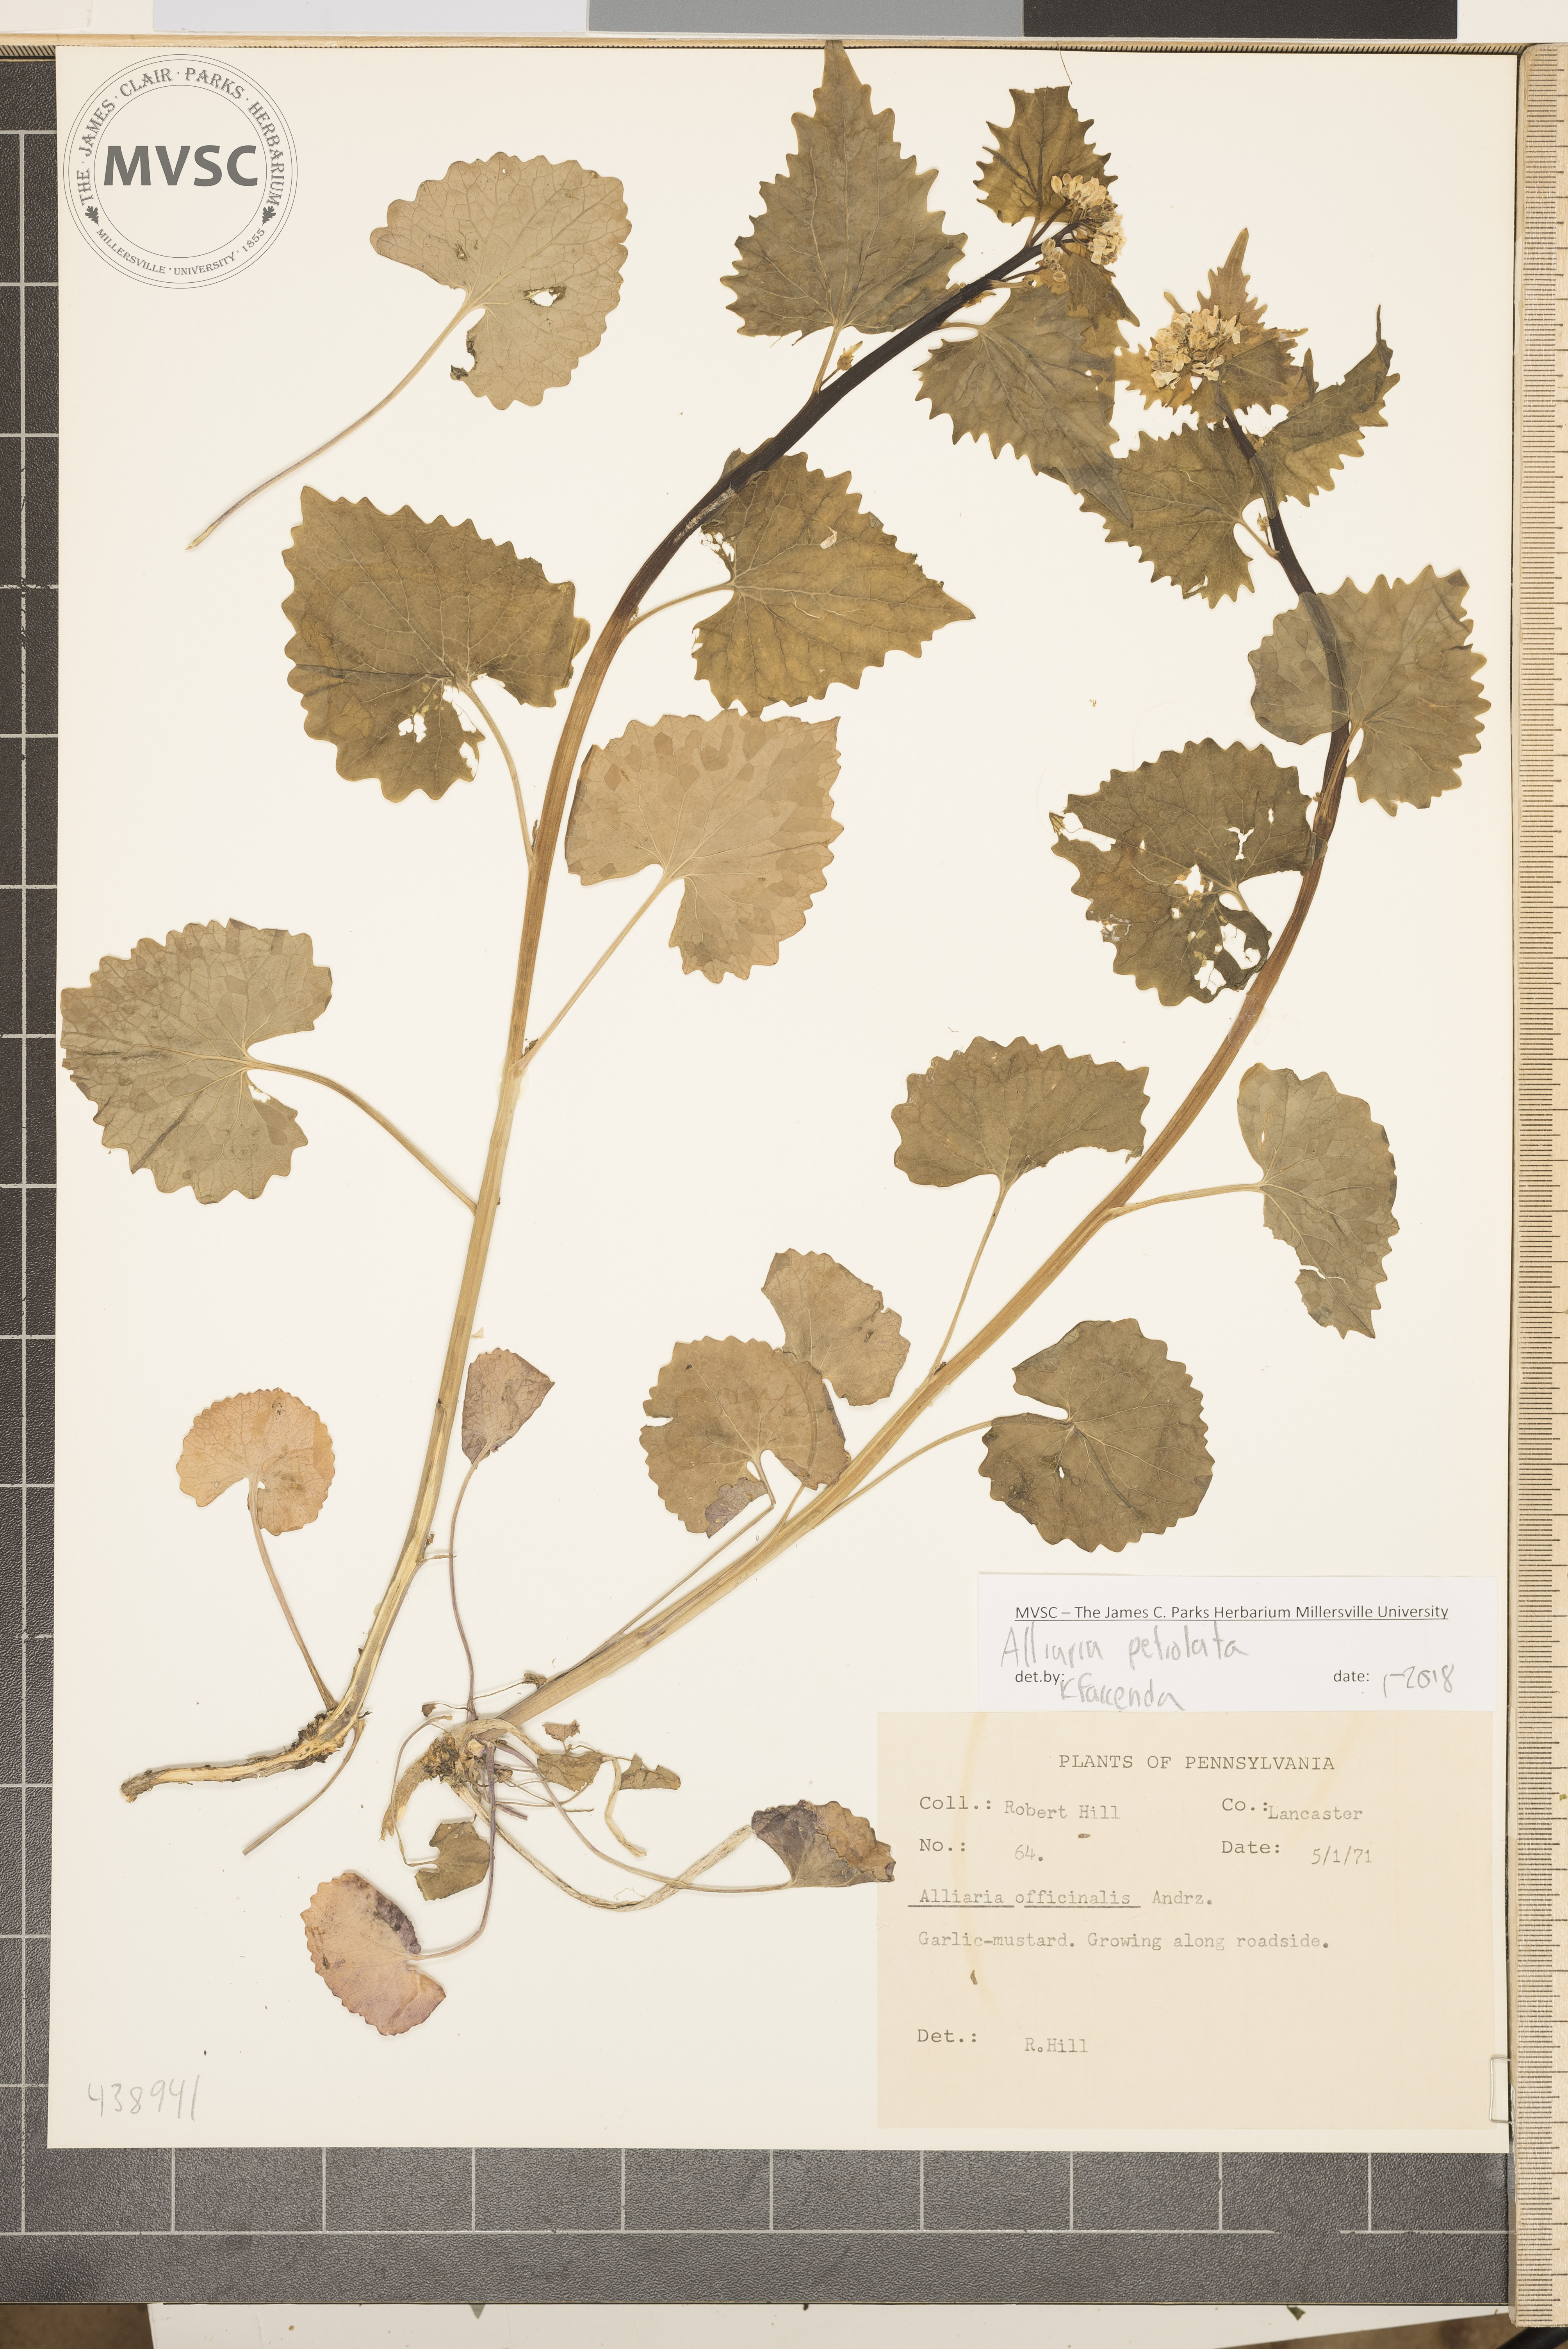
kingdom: Plantae
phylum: Tracheophyta
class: Magnoliopsida
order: Brassicales
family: Brassicaceae
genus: Alliaria
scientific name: Alliaria petiolata
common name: Garlic mustard
